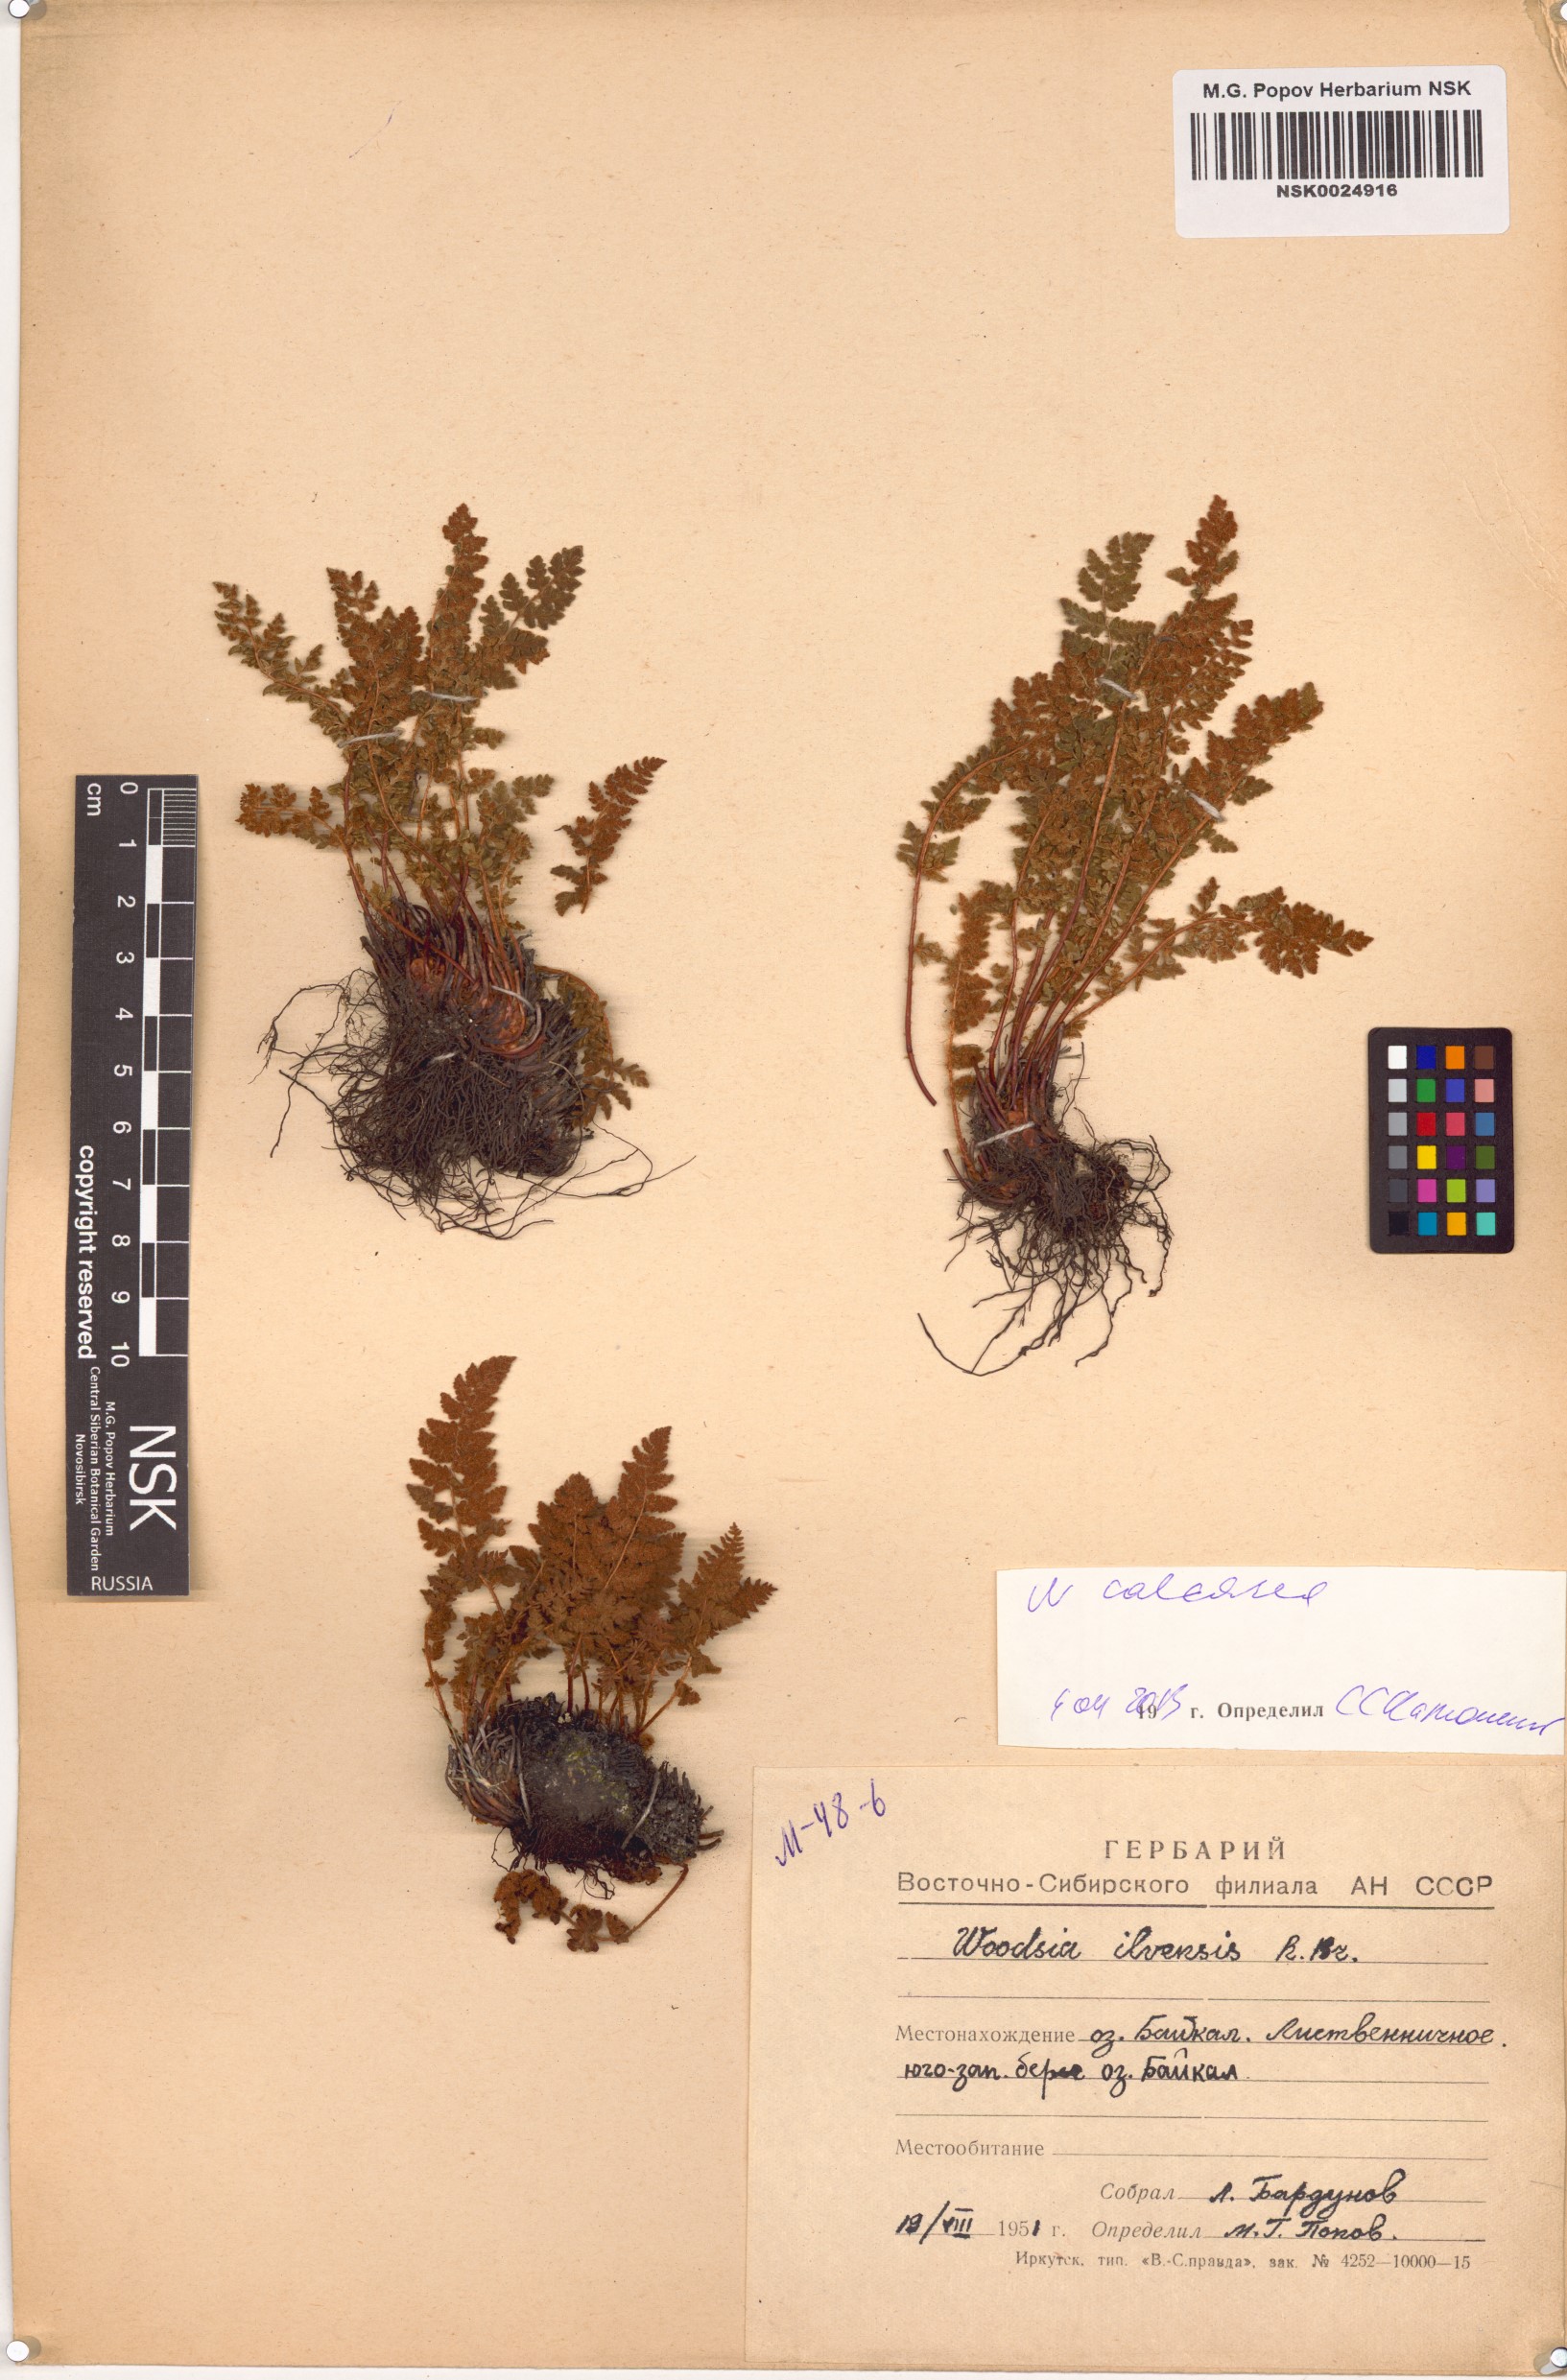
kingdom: Plantae
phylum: Tracheophyta
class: Polypodiopsida
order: Polypodiales
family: Woodsiaceae
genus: Woodsia
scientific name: Woodsia calcarea
